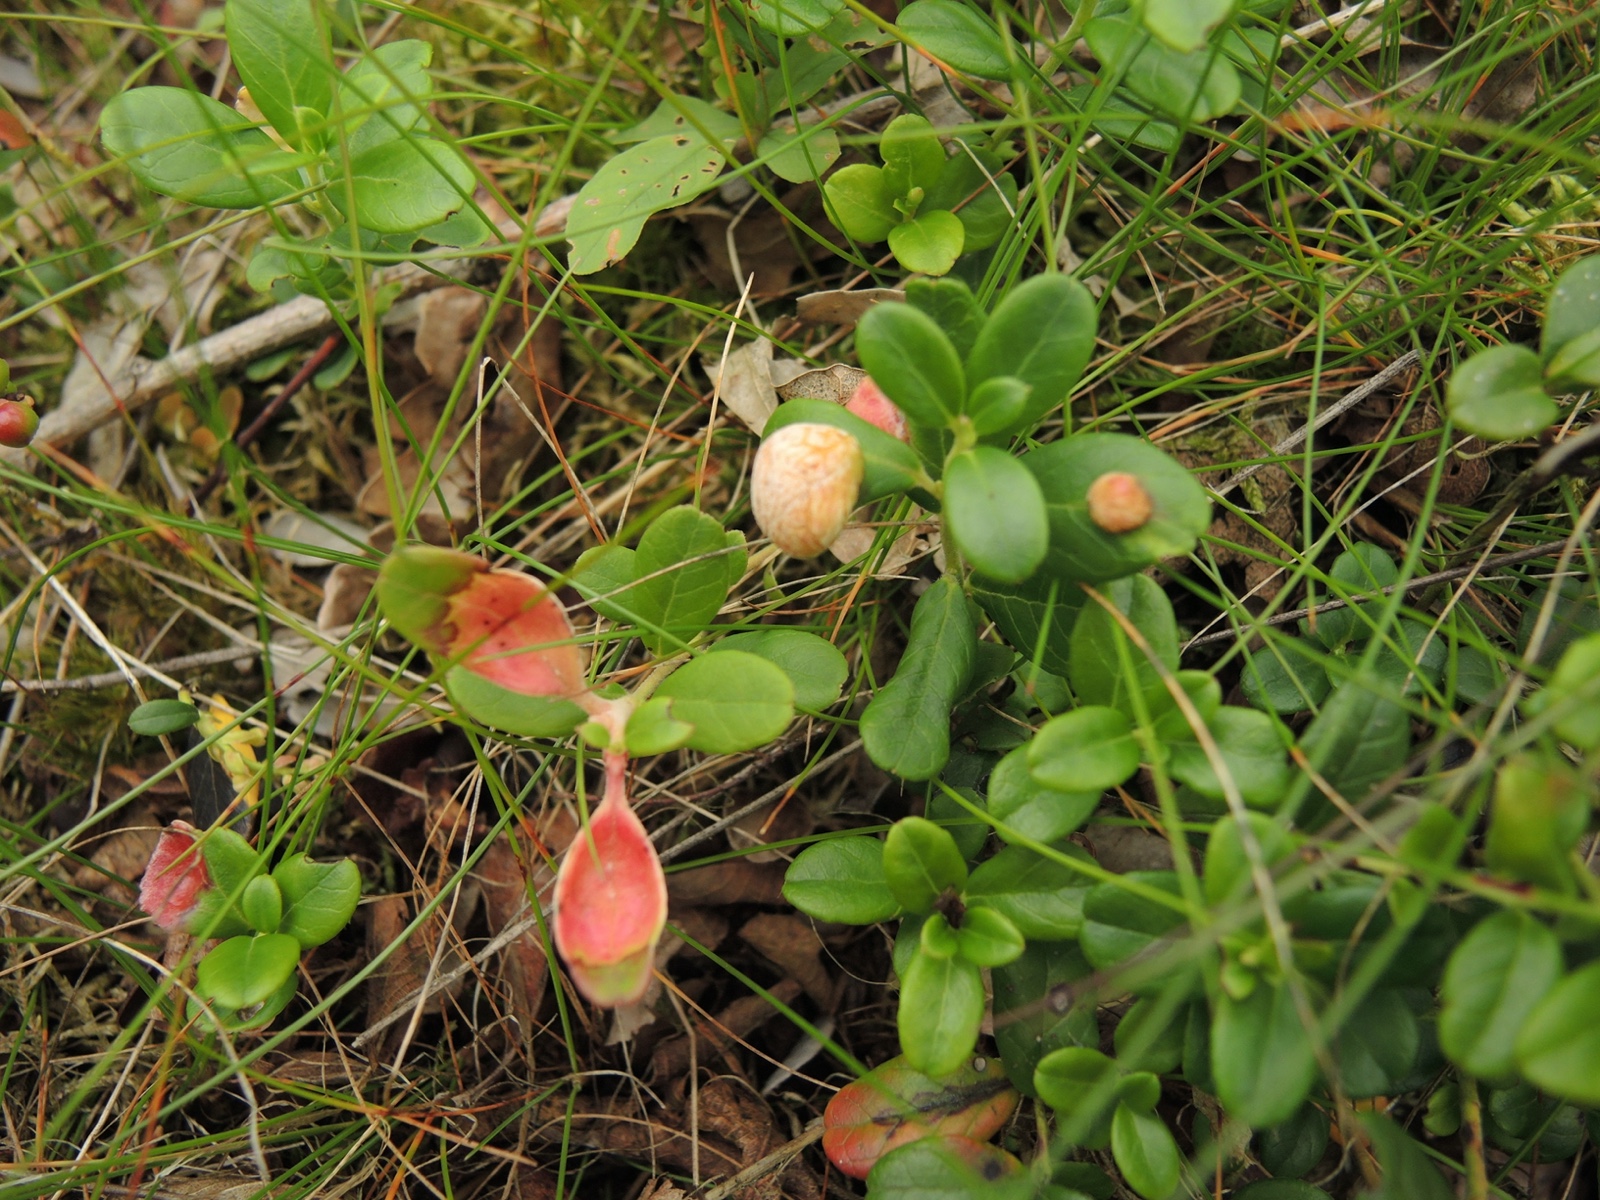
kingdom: Fungi
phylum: Basidiomycota
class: Exobasidiomycetes
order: Exobasidiales
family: Exobasidiaceae
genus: Exobasidium
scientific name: Exobasidium vaccinii
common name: tyttebærblad-bøllesvamp
